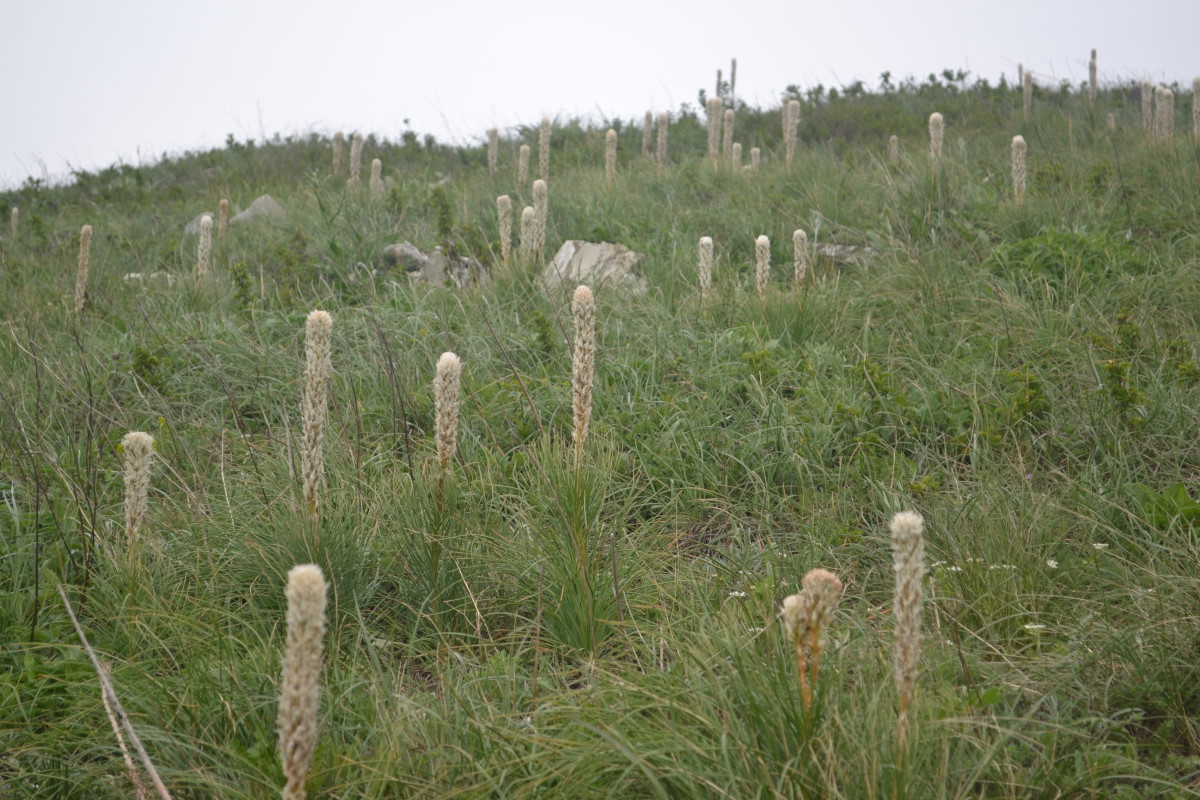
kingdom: Plantae
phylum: Tracheophyta
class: Liliopsida
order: Asparagales
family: Asphodelaceae
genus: Asphodeline
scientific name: Asphodeline taurica
